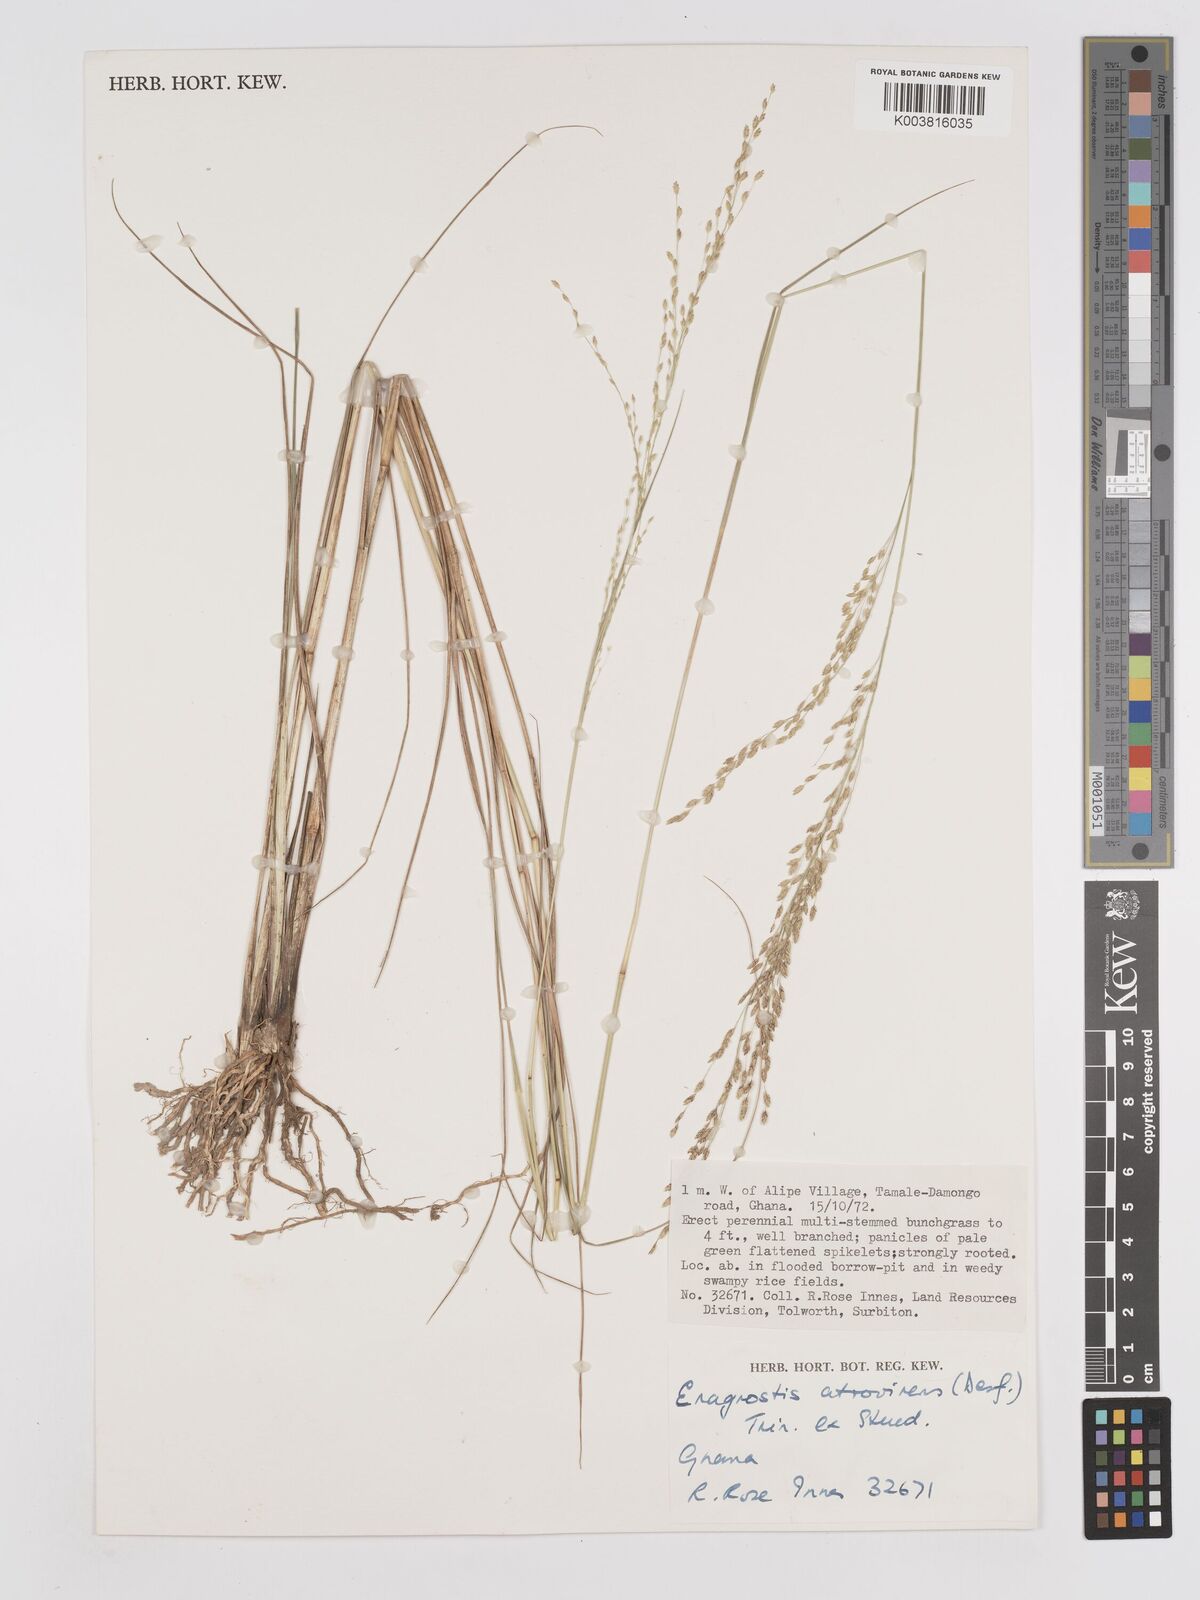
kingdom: Plantae
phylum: Tracheophyta
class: Liliopsida
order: Poales
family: Poaceae
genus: Eragrostis
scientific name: Eragrostis atrovirens
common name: Thalia lovegrass
